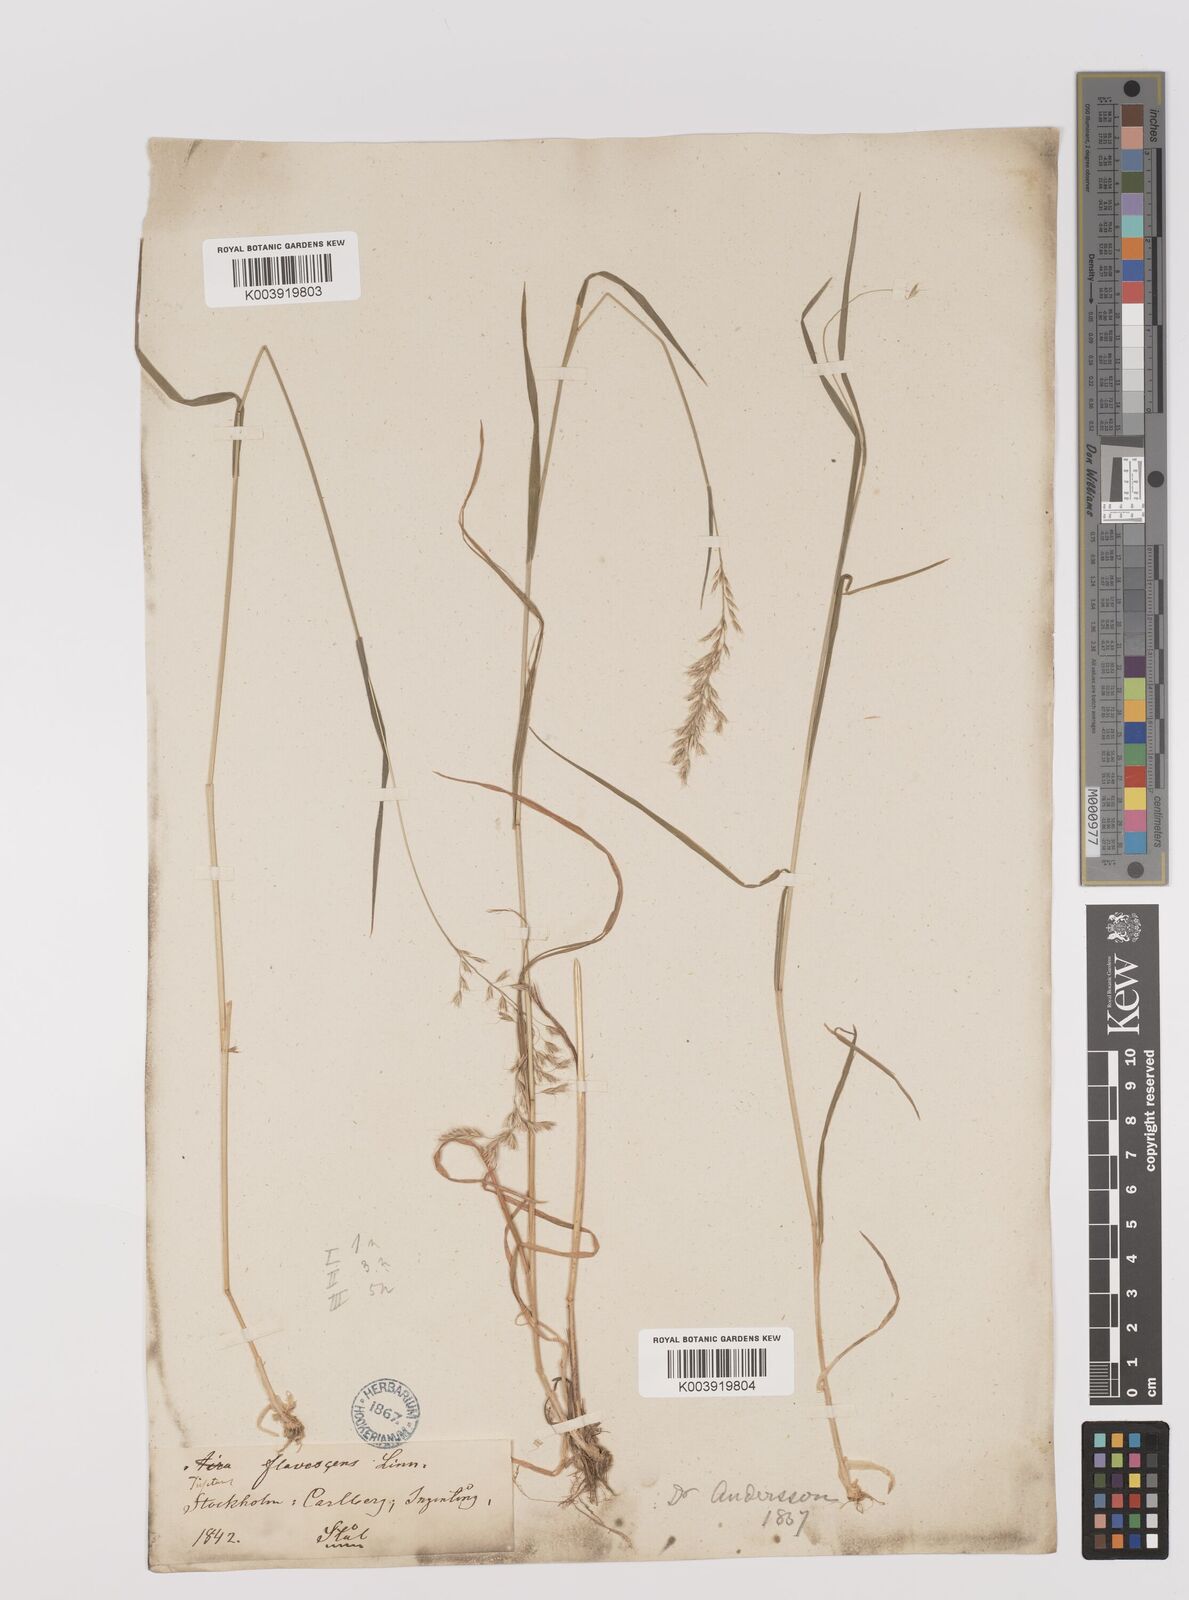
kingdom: Plantae
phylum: Tracheophyta
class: Liliopsida
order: Poales
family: Poaceae
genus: Trisetum
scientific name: Trisetum flavescens
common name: Yellow oat-grass
